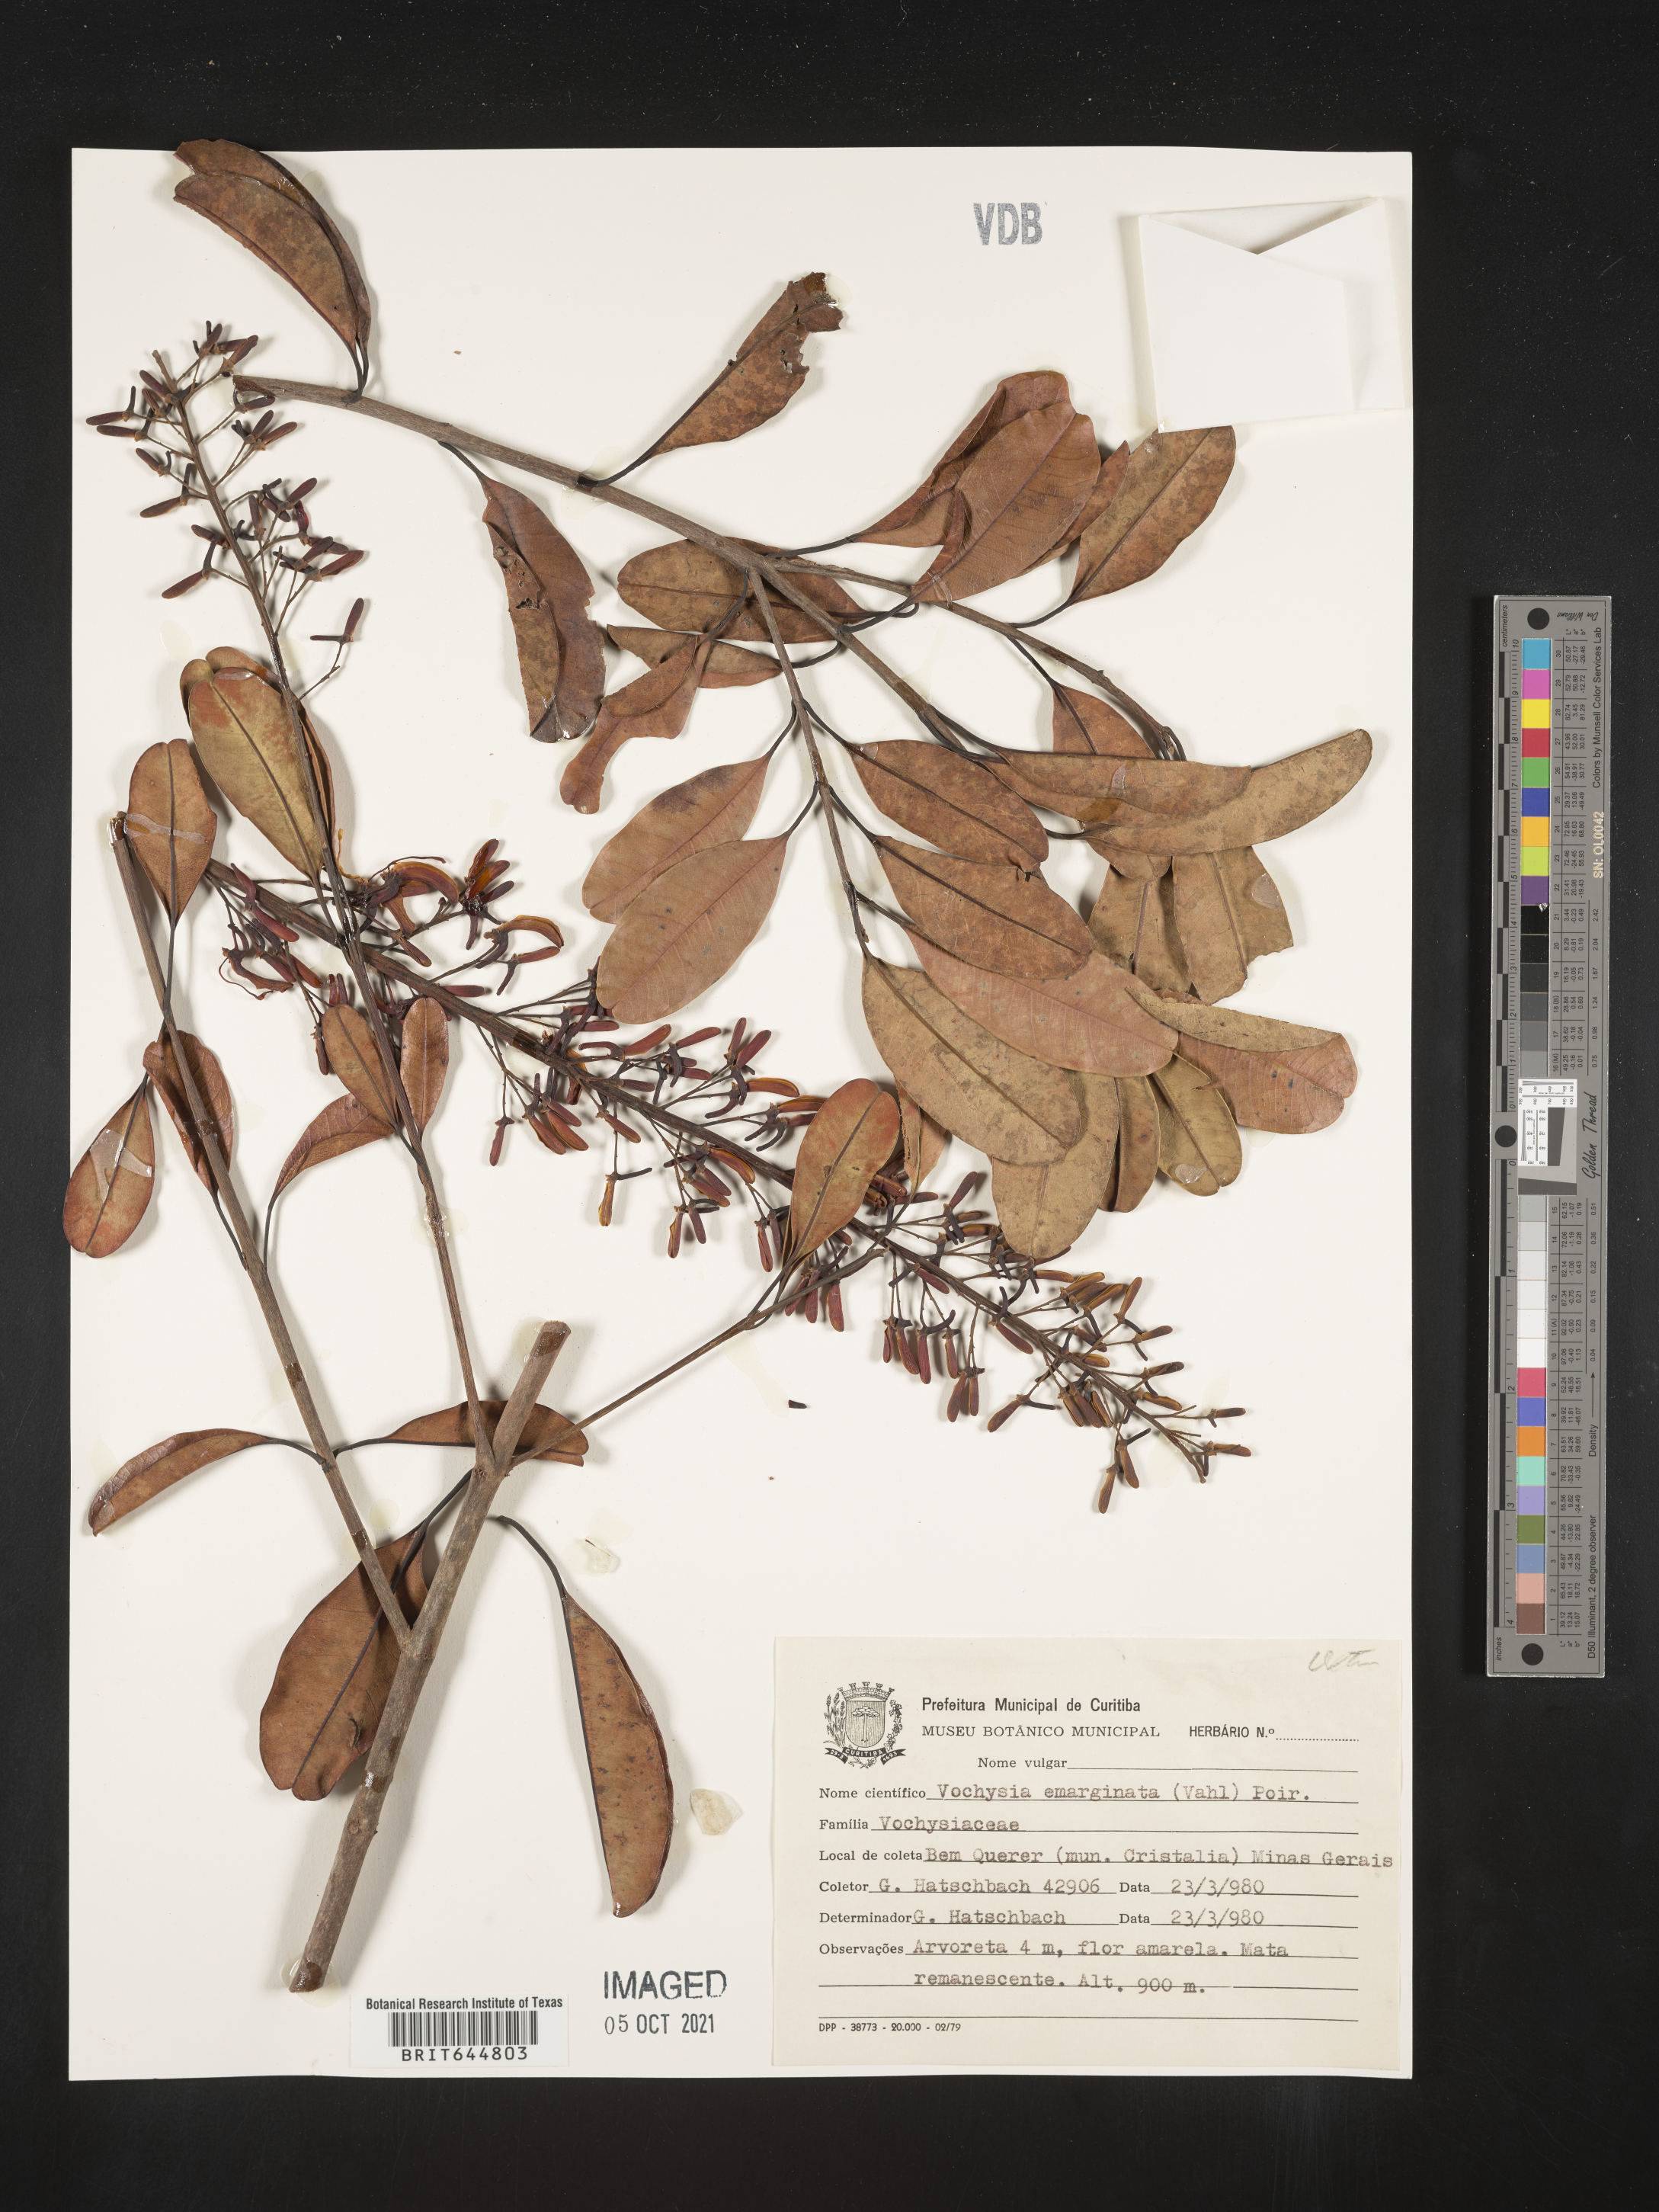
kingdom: Plantae
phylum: Tracheophyta
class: Magnoliopsida
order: Myrtales
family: Vochysiaceae
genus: Vochysia
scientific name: Vochysia
